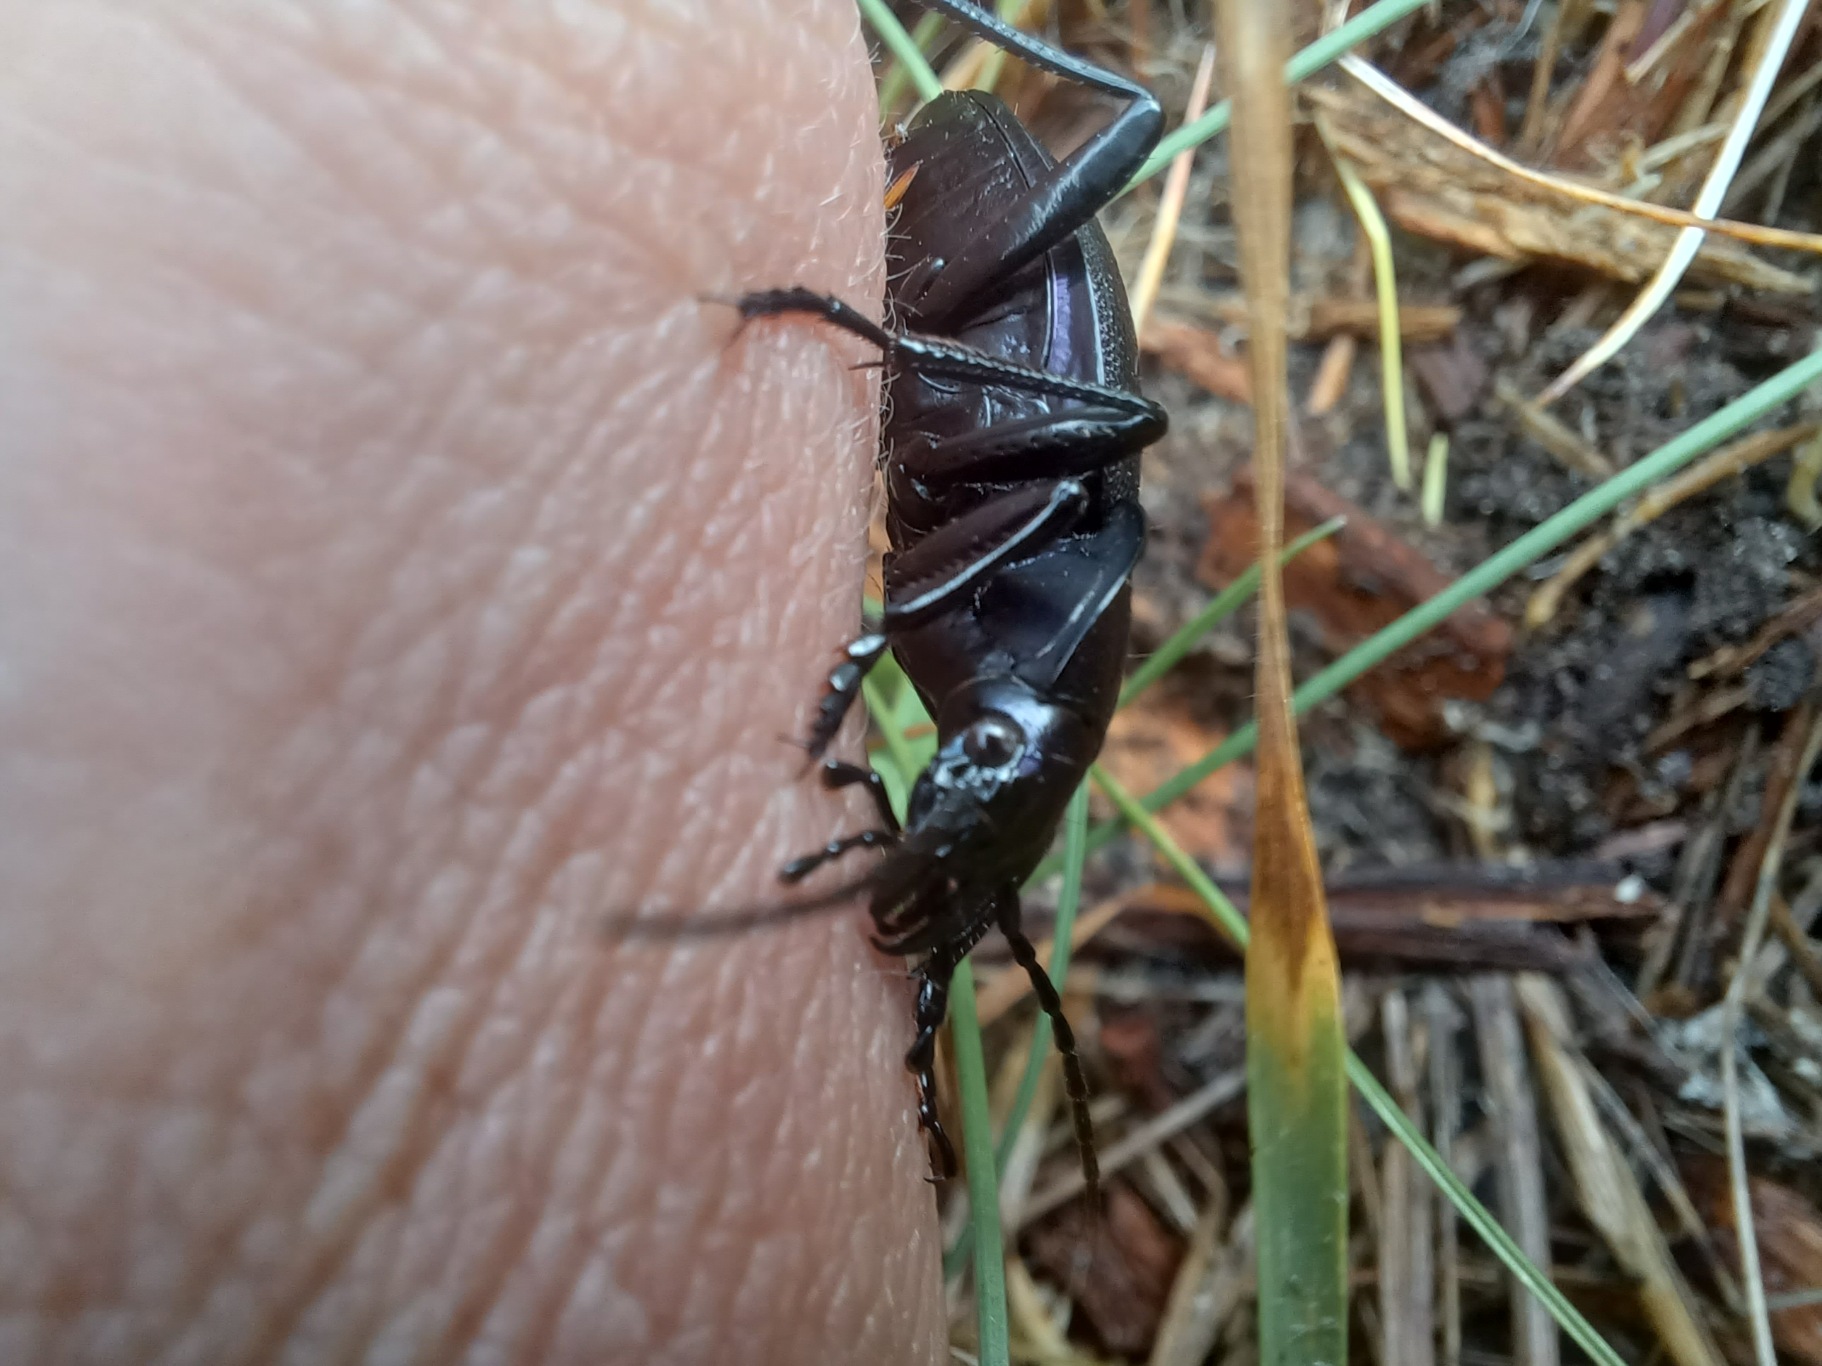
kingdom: Animalia
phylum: Arthropoda
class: Insecta
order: Coleoptera
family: Carabidae
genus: Carabus
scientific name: Carabus problematicus
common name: Jysk løber
